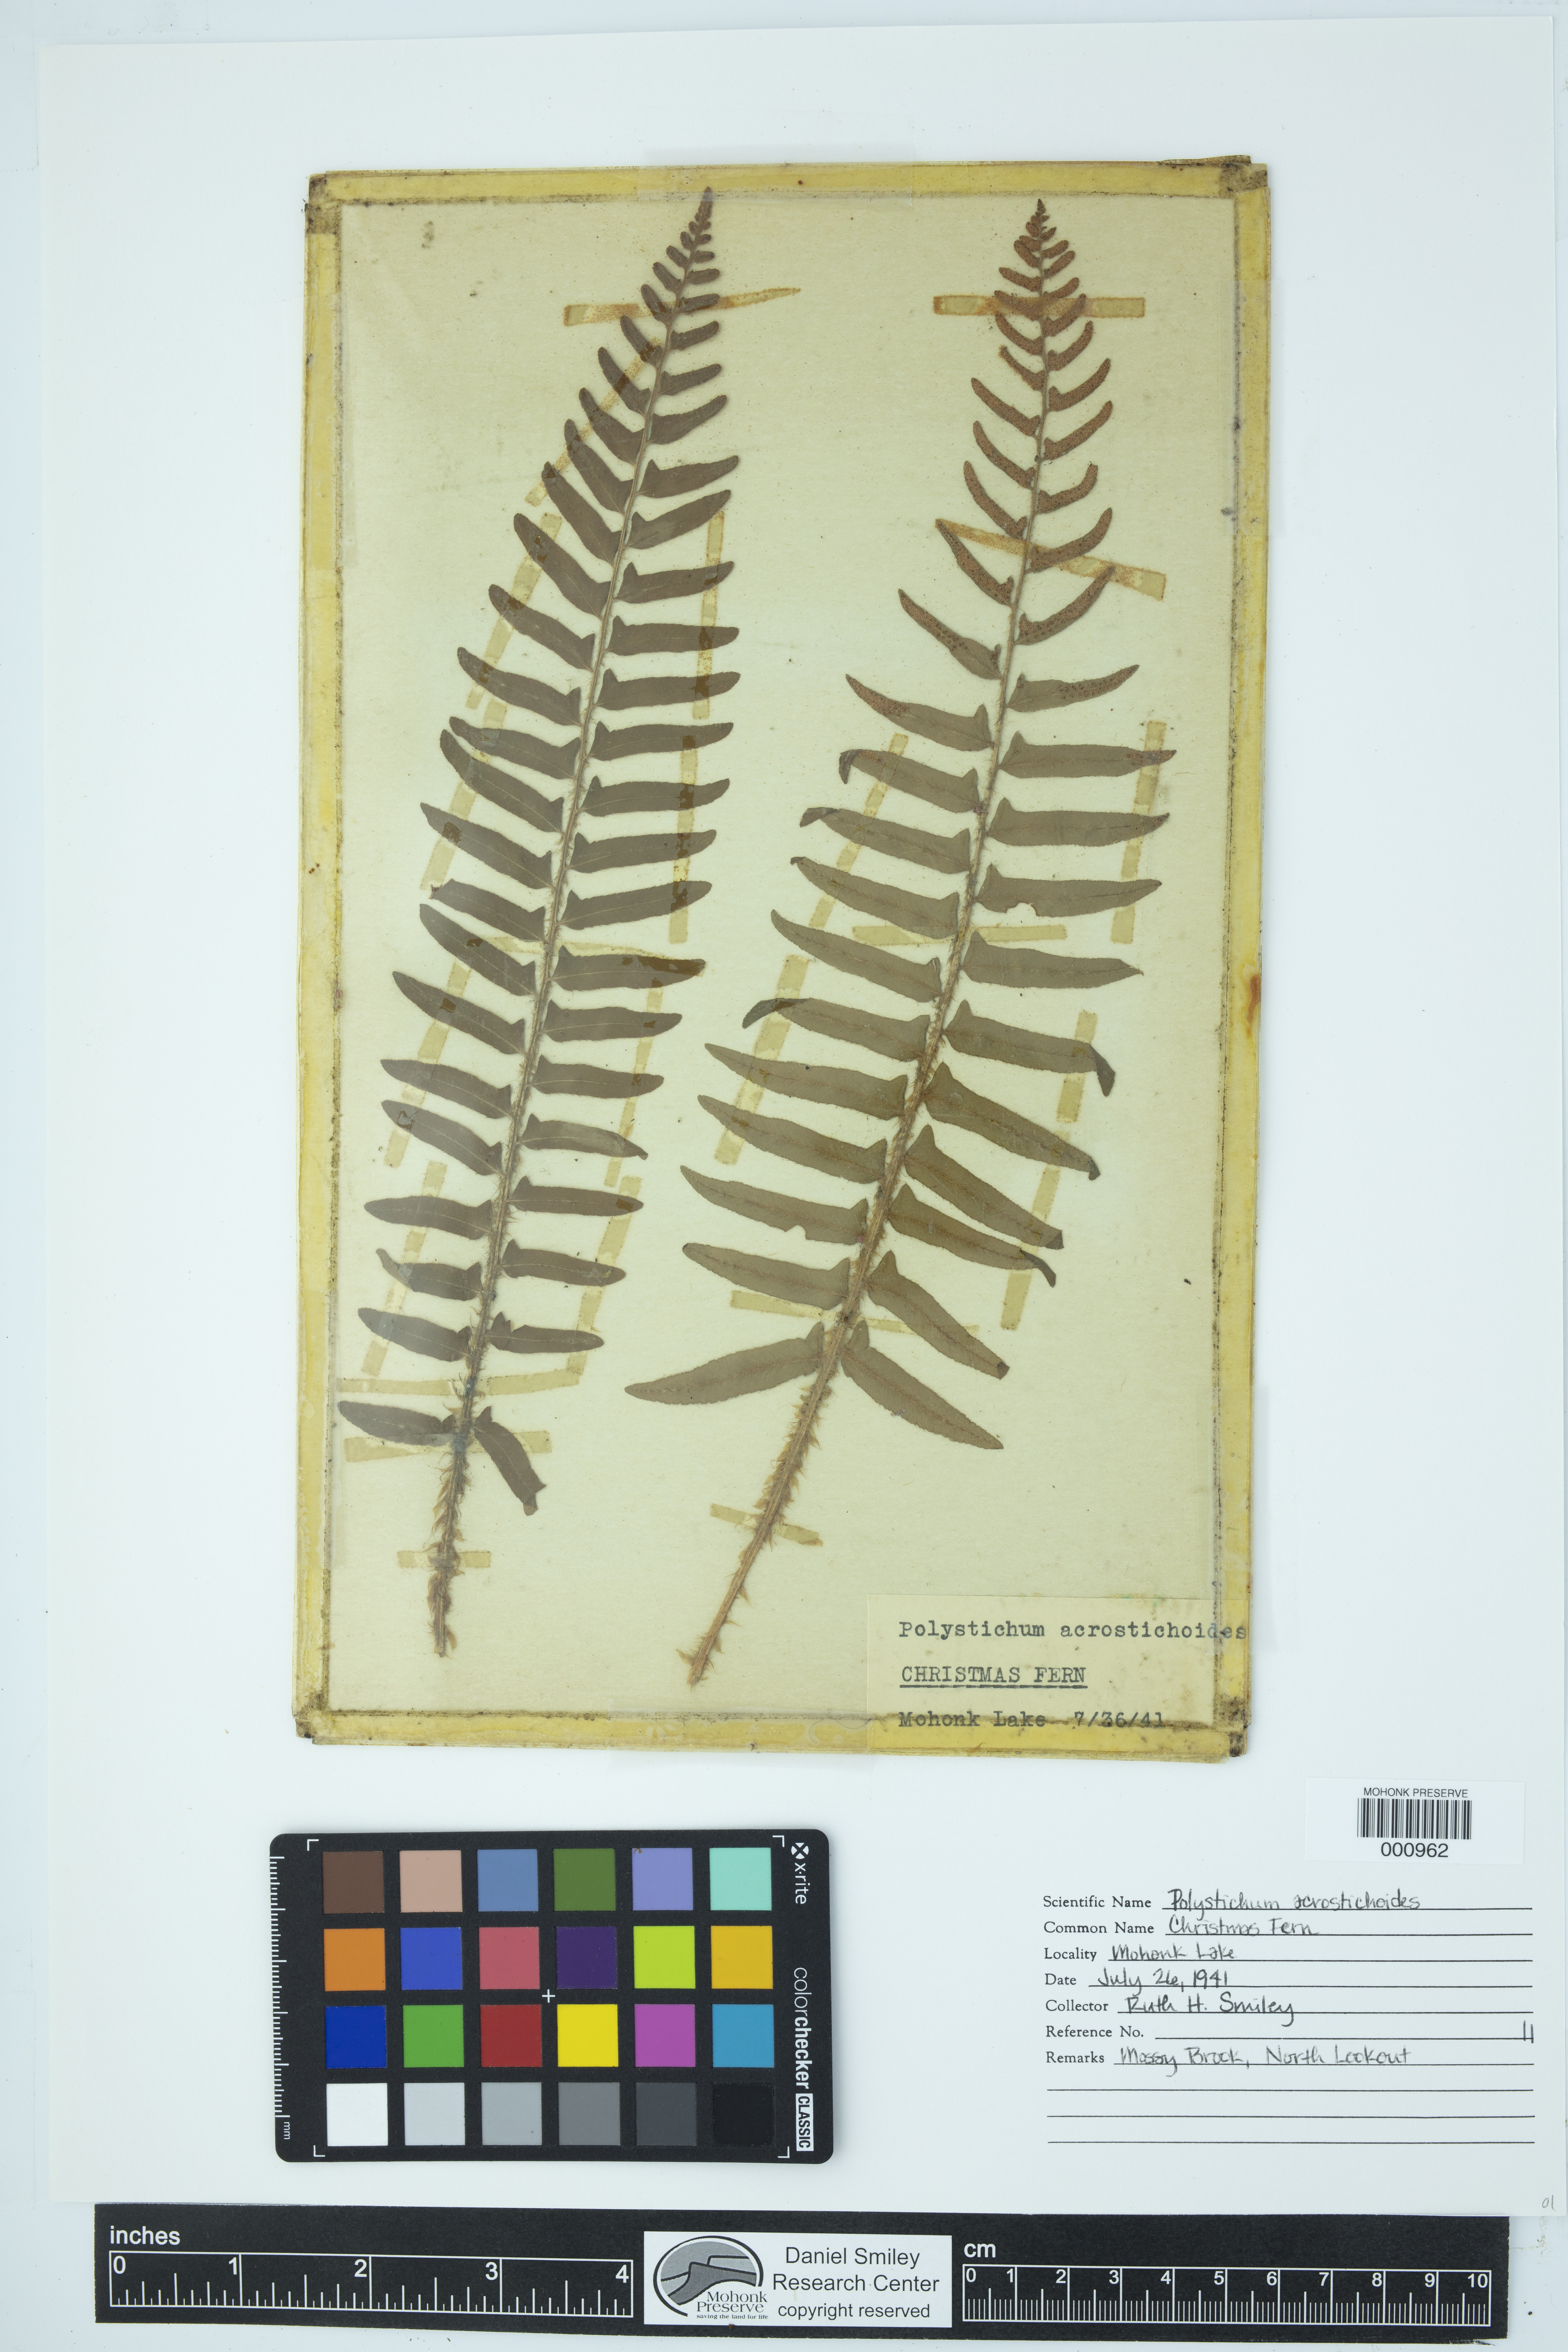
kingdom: Plantae
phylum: Tracheophyta
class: Polypodiopsida
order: Polypodiales
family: Dryopteridaceae
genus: Polystichum
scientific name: Polystichum acrostichoides
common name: Christmas fern
